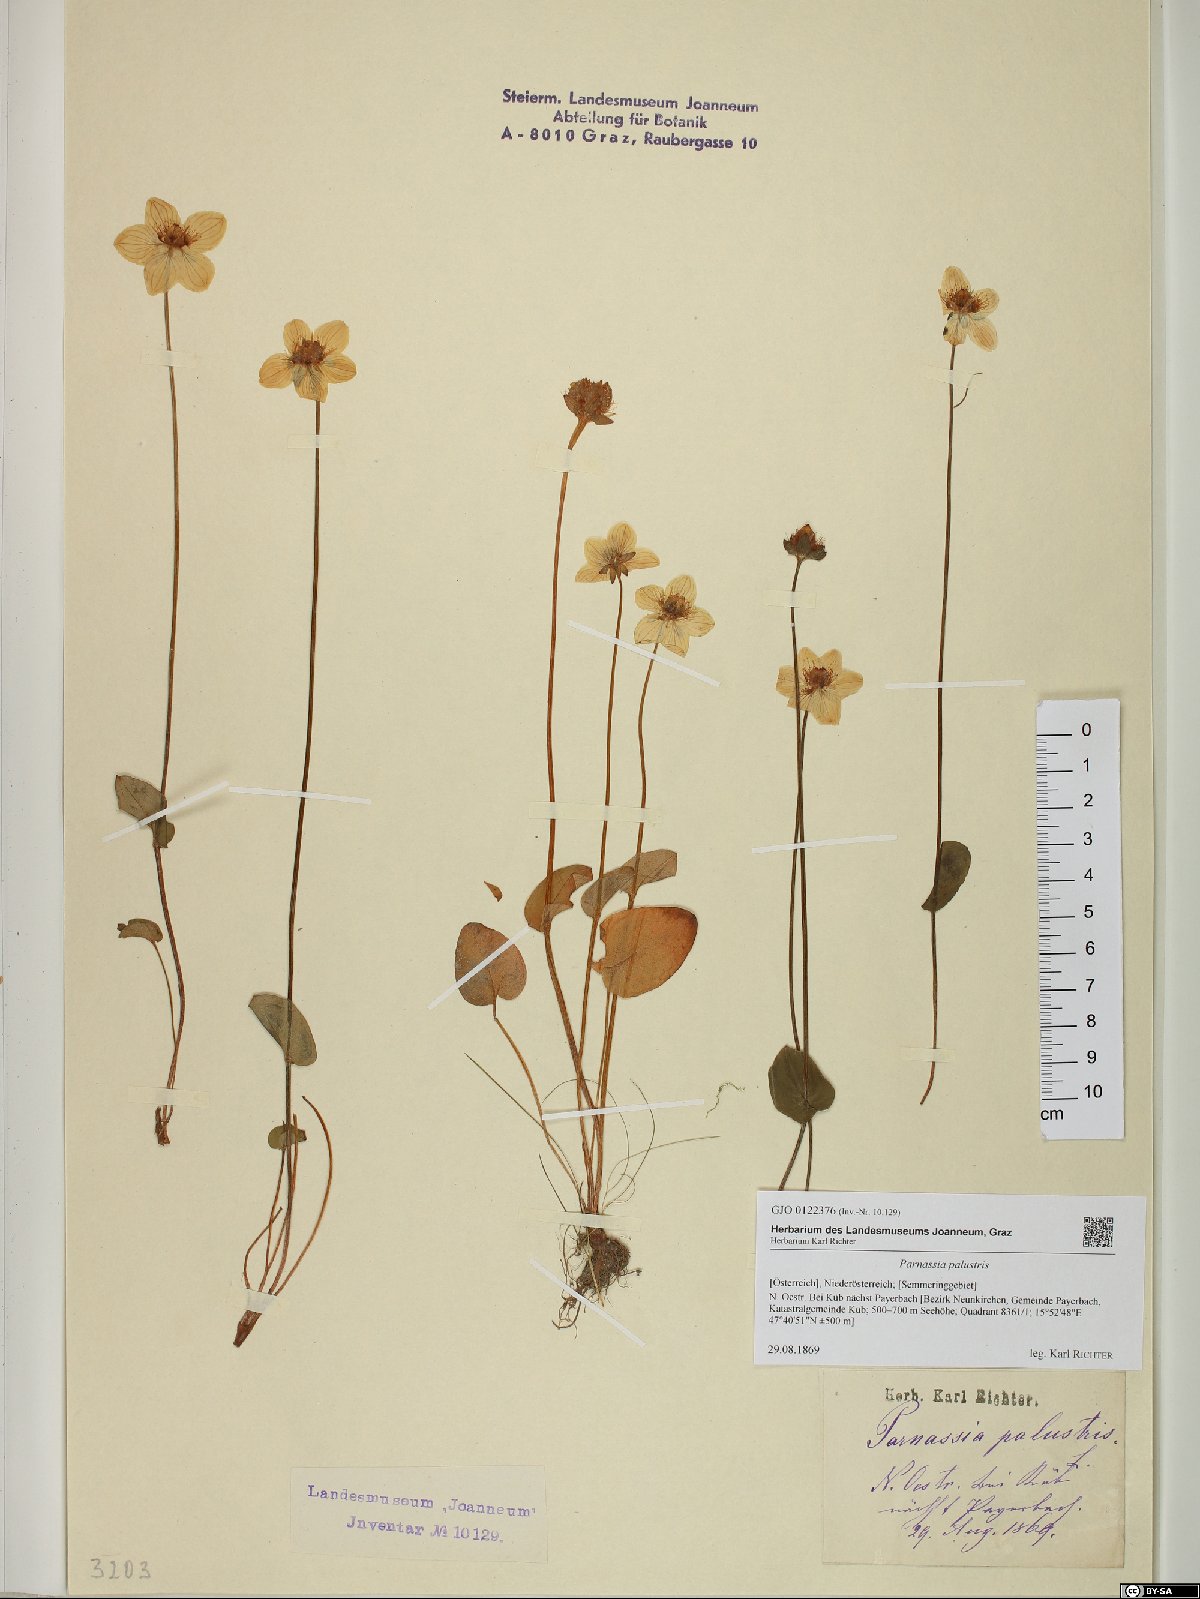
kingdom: Plantae
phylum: Tracheophyta
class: Magnoliopsida
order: Celastrales
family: Parnassiaceae
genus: Parnassia
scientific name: Parnassia palustris
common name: Grass-of-parnassus
